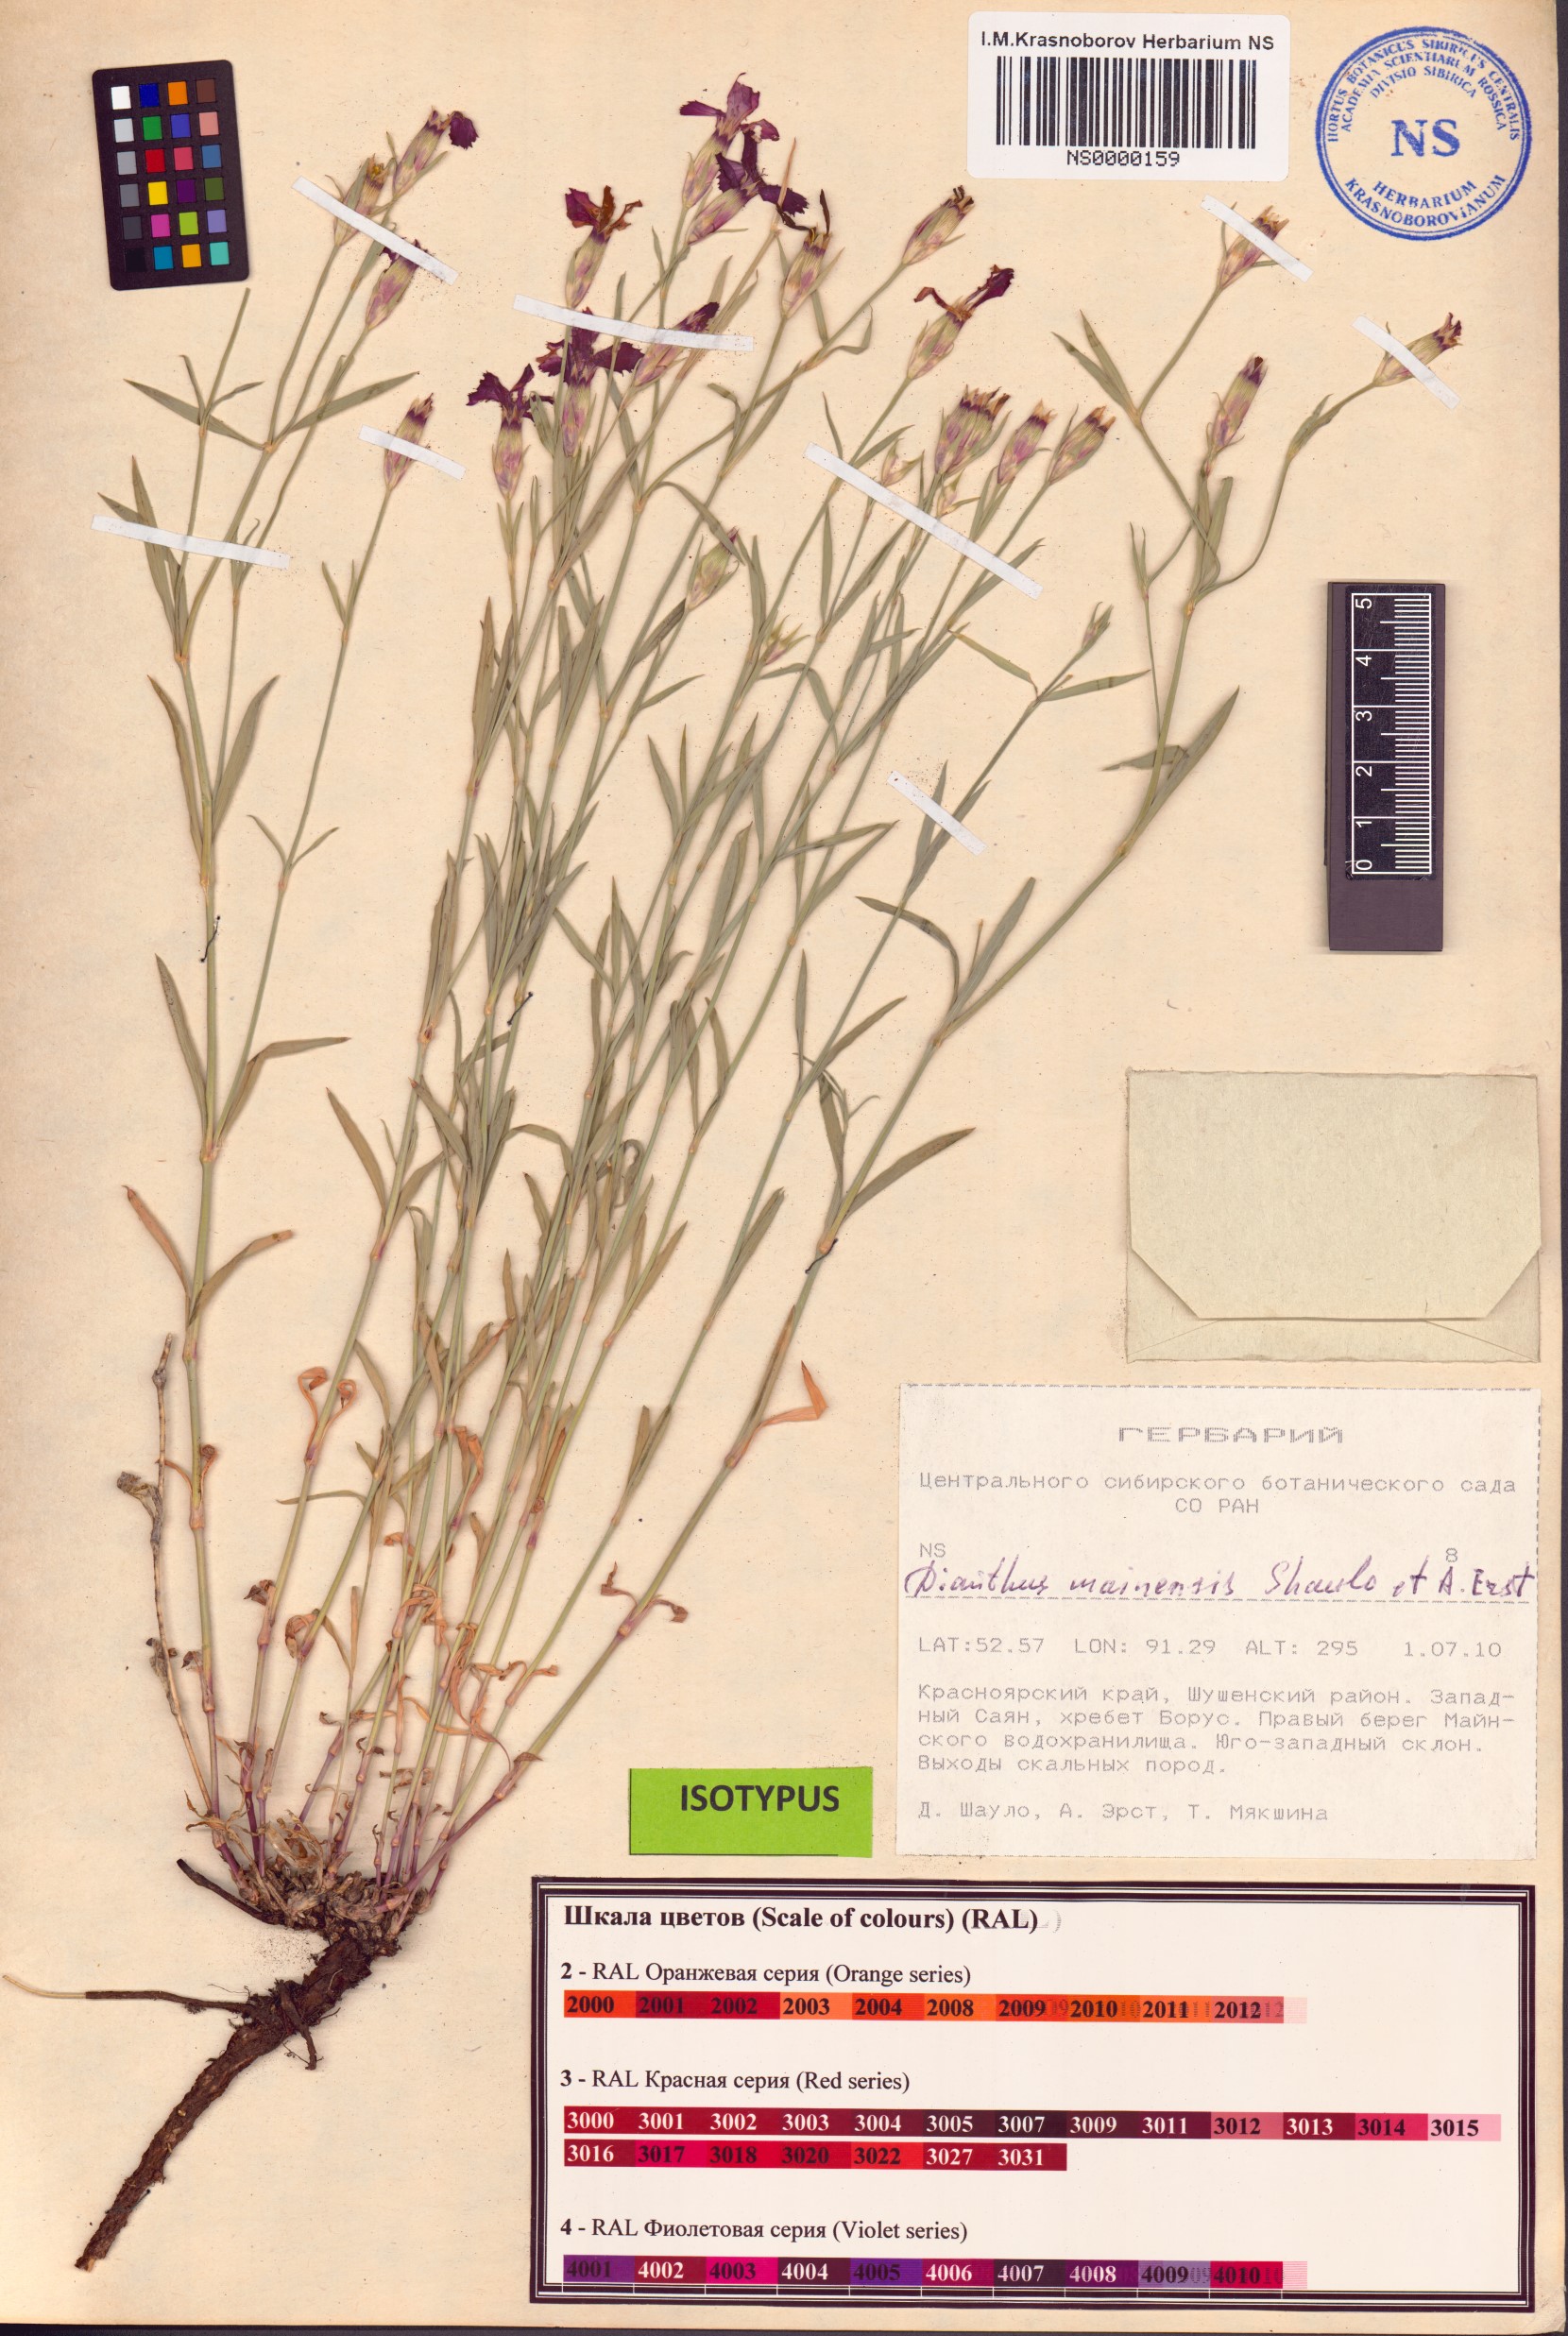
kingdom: Plantae
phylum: Tracheophyta
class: Magnoliopsida
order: Caryophyllales
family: Caryophyllaceae
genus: Dianthus
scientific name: Dianthus mainensis
